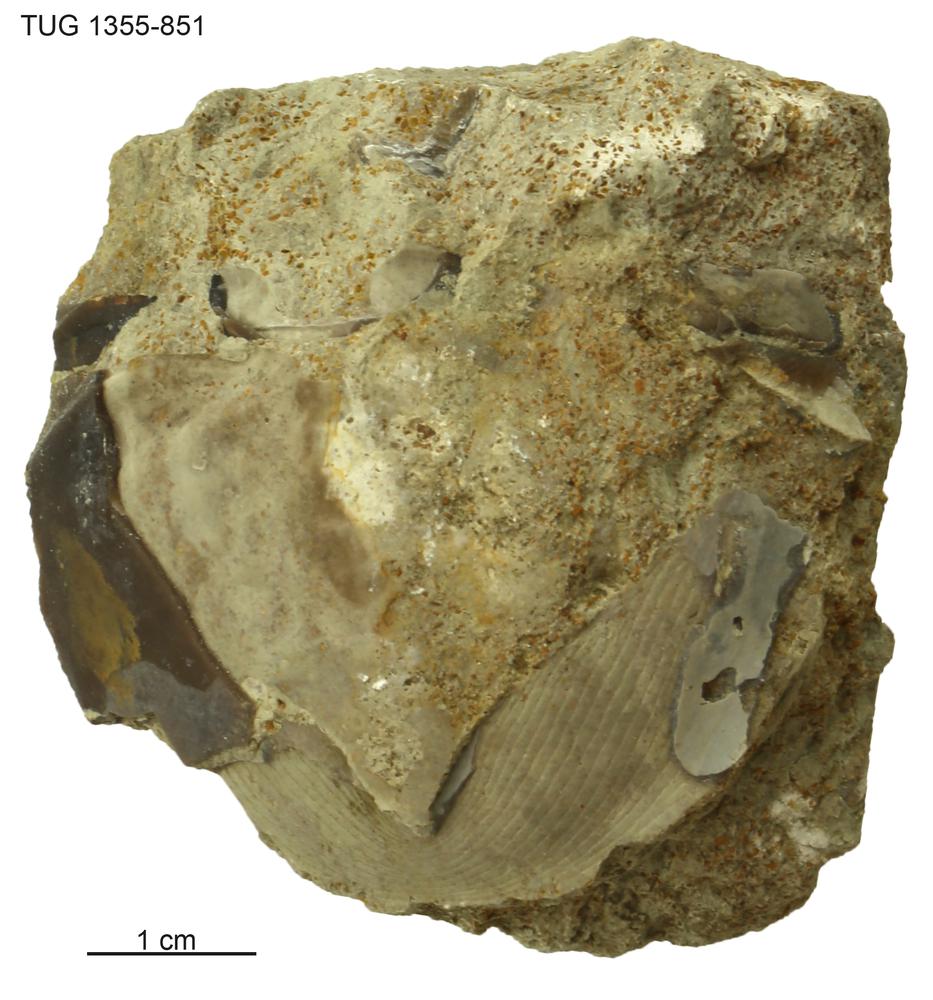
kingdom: Animalia
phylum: Arthropoda
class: Trilobita
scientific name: Trilobita
